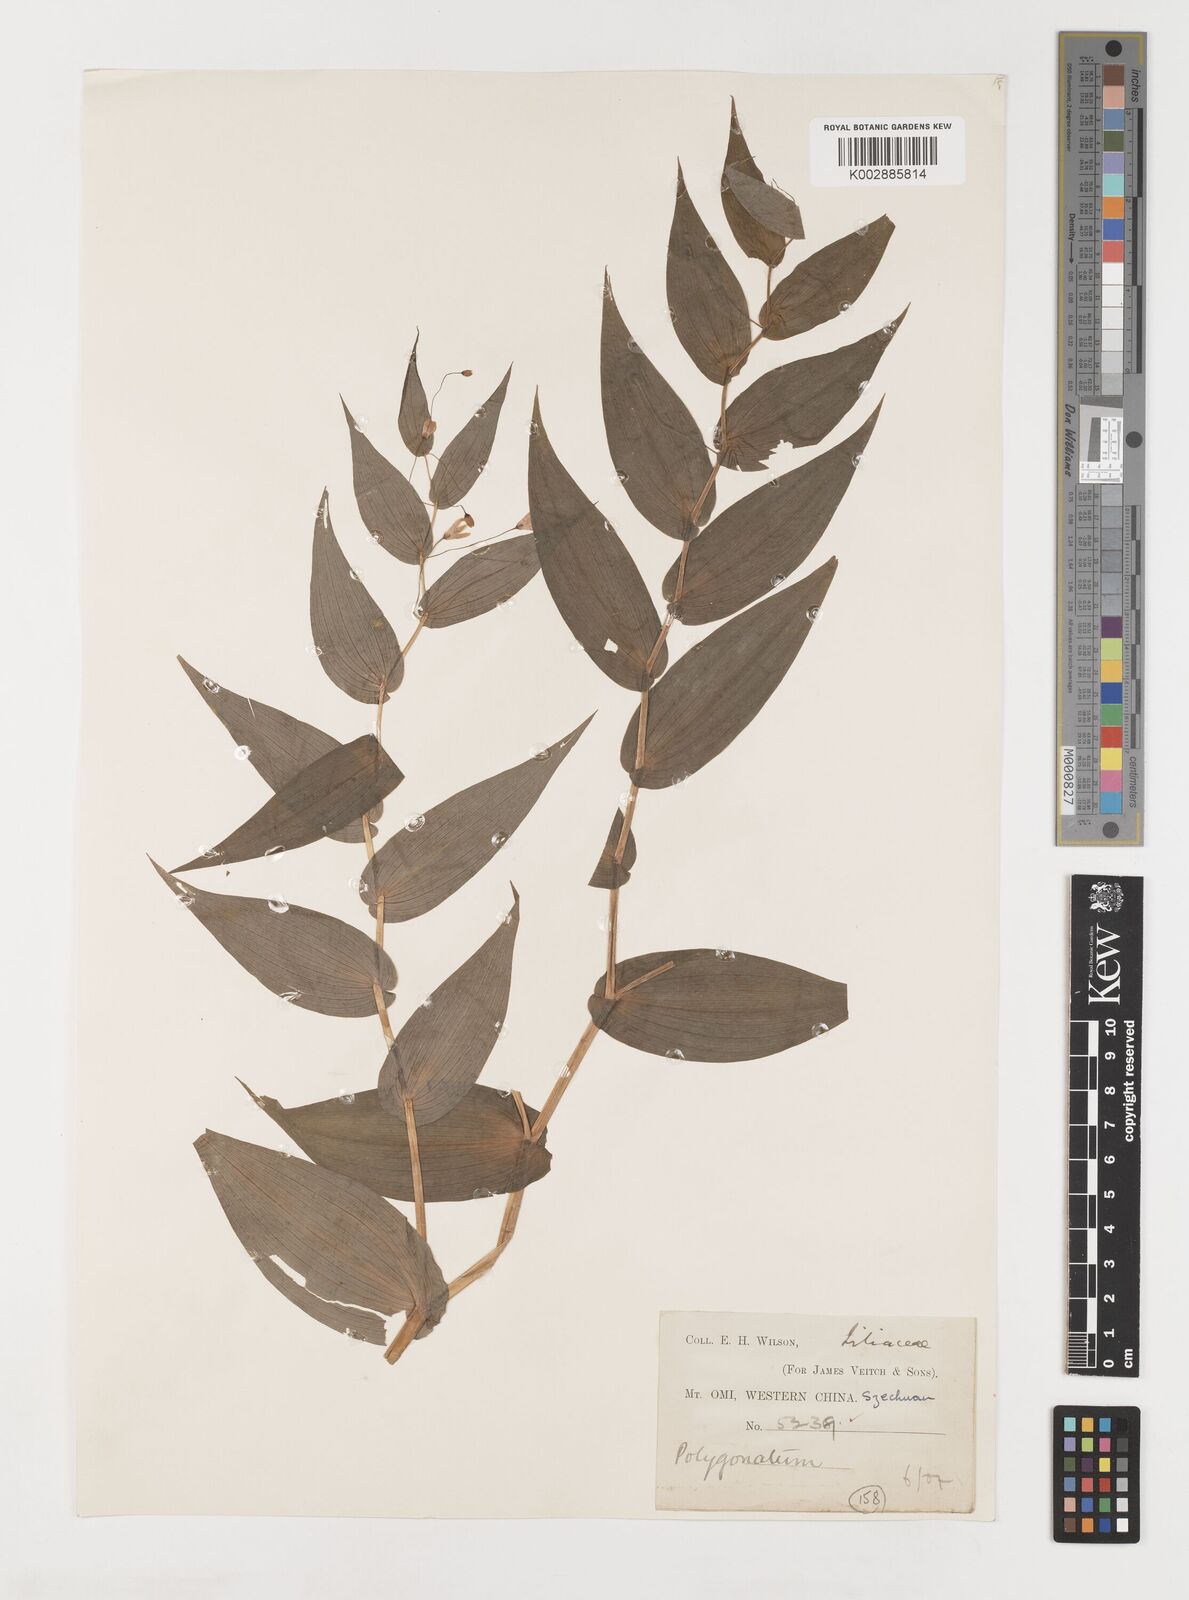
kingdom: Plantae
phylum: Tracheophyta
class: Liliopsida
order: Liliales
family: Liliaceae
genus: Streptopus
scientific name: Streptopus parviflorus
